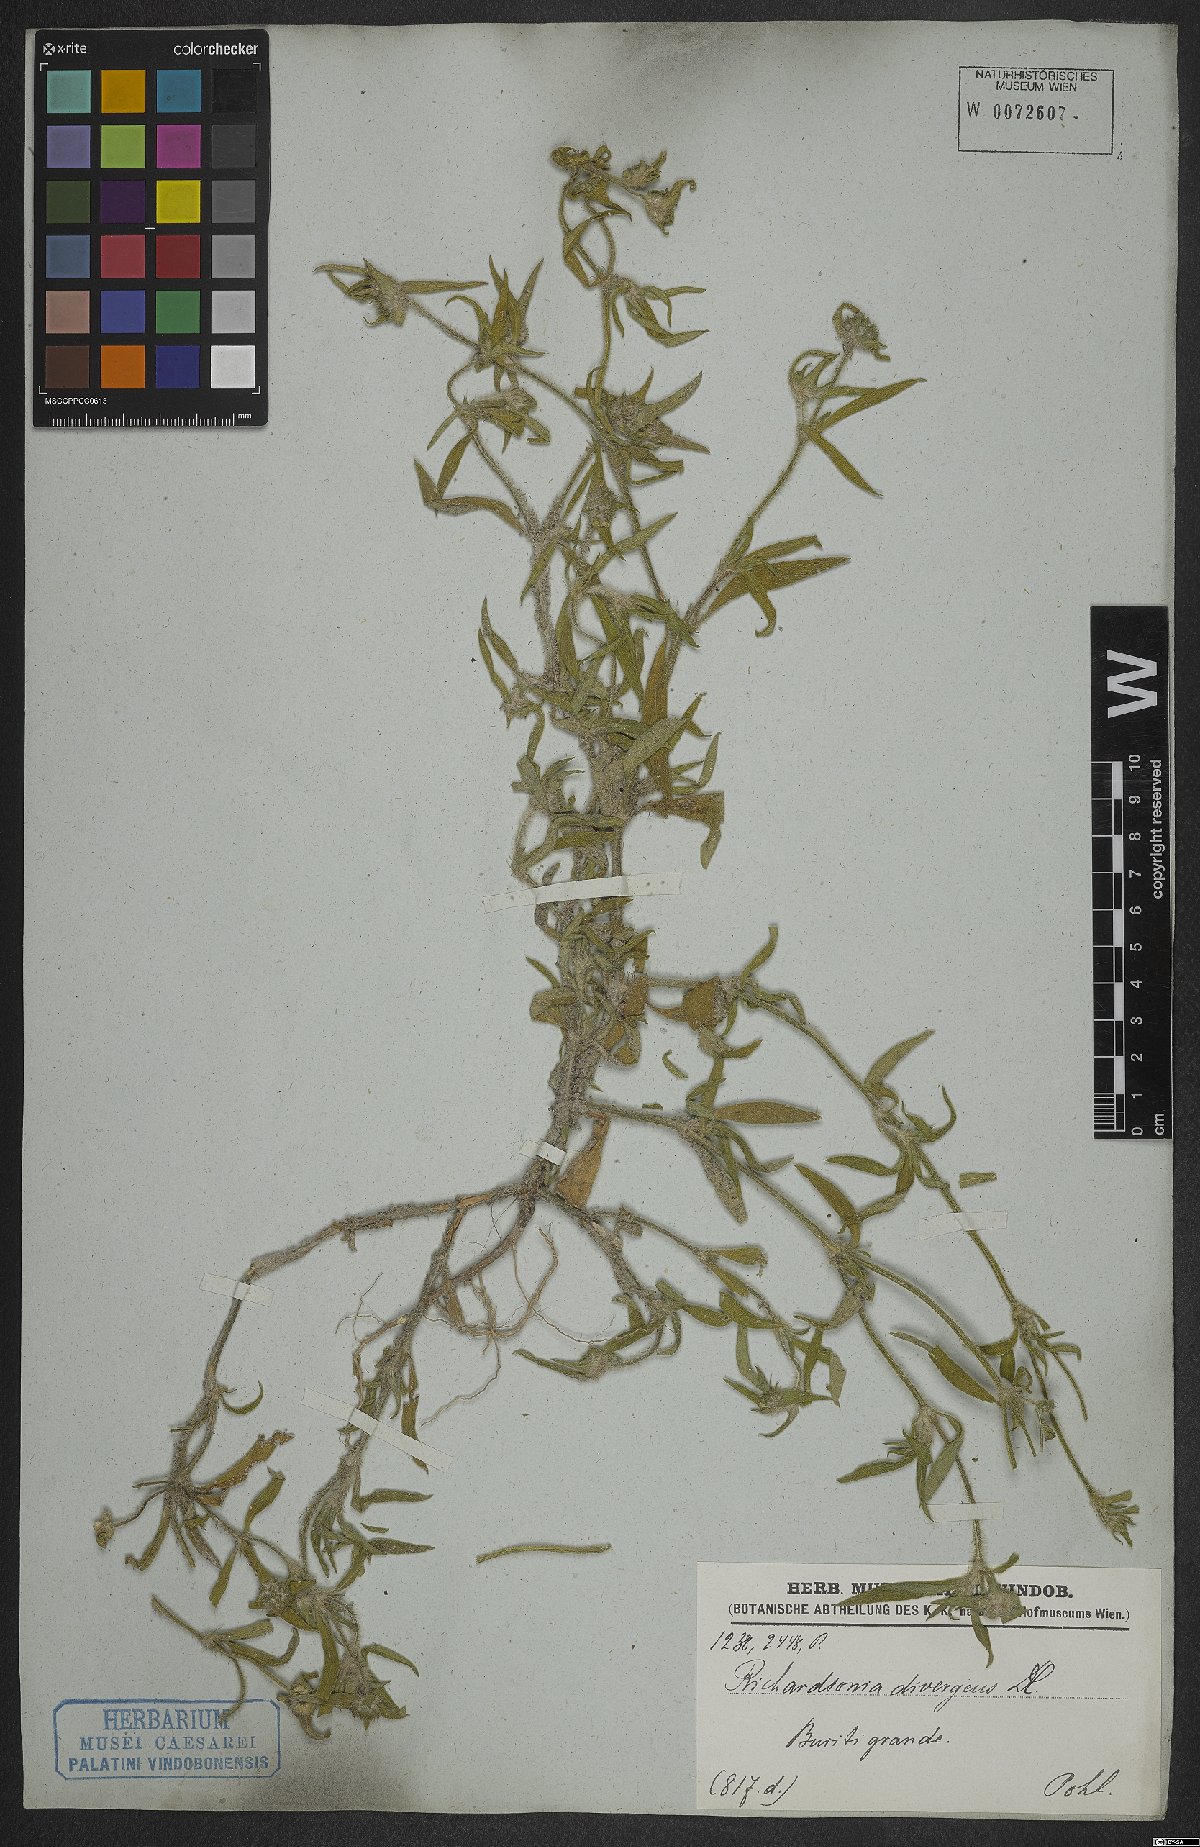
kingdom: Plantae
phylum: Tracheophyta
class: Magnoliopsida
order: Gentianales
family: Rubiaceae
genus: Richardia
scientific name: Richardia scabra
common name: Rough mexican clover
